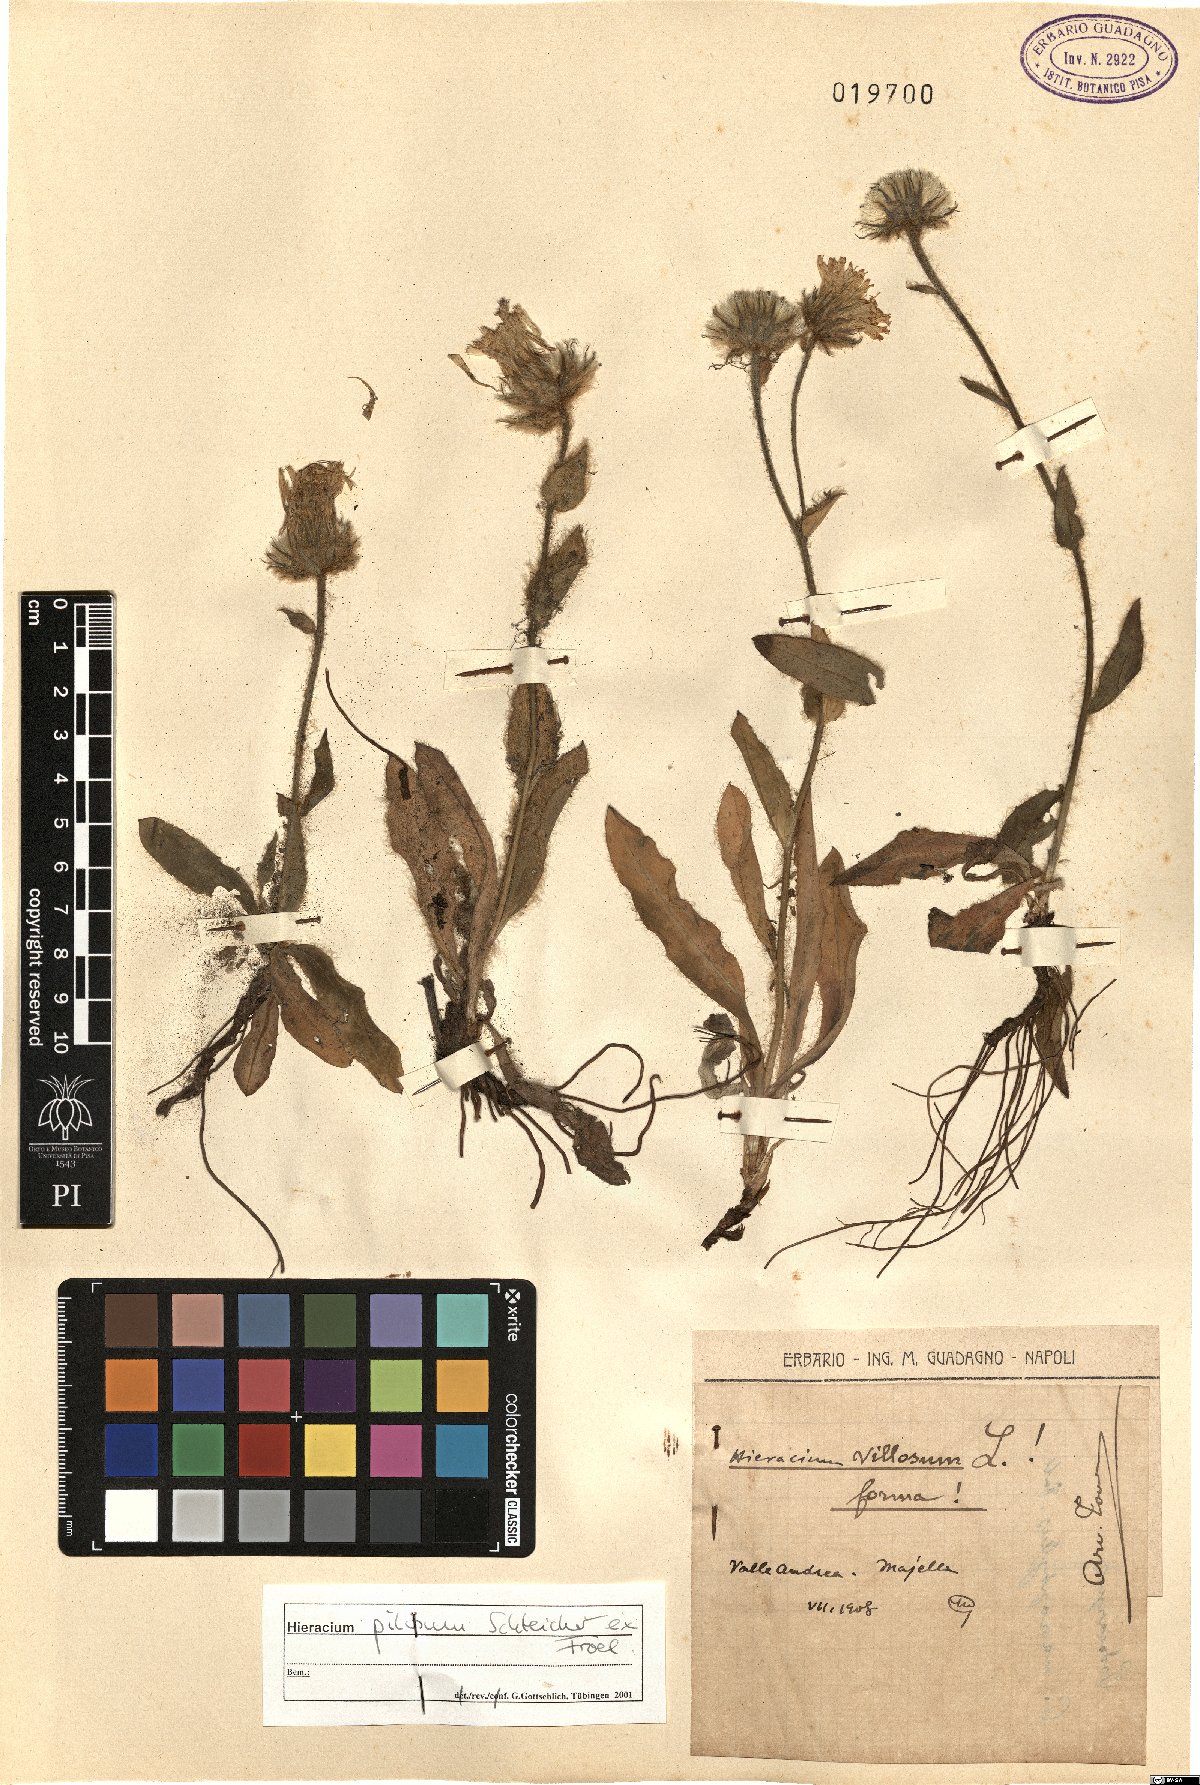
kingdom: Plantae
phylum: Tracheophyta
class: Magnoliopsida
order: Asterales
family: Asteraceae
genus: Hieracium
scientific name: Hieracium pilosum
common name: Fimbriate-pitted hawkweed
